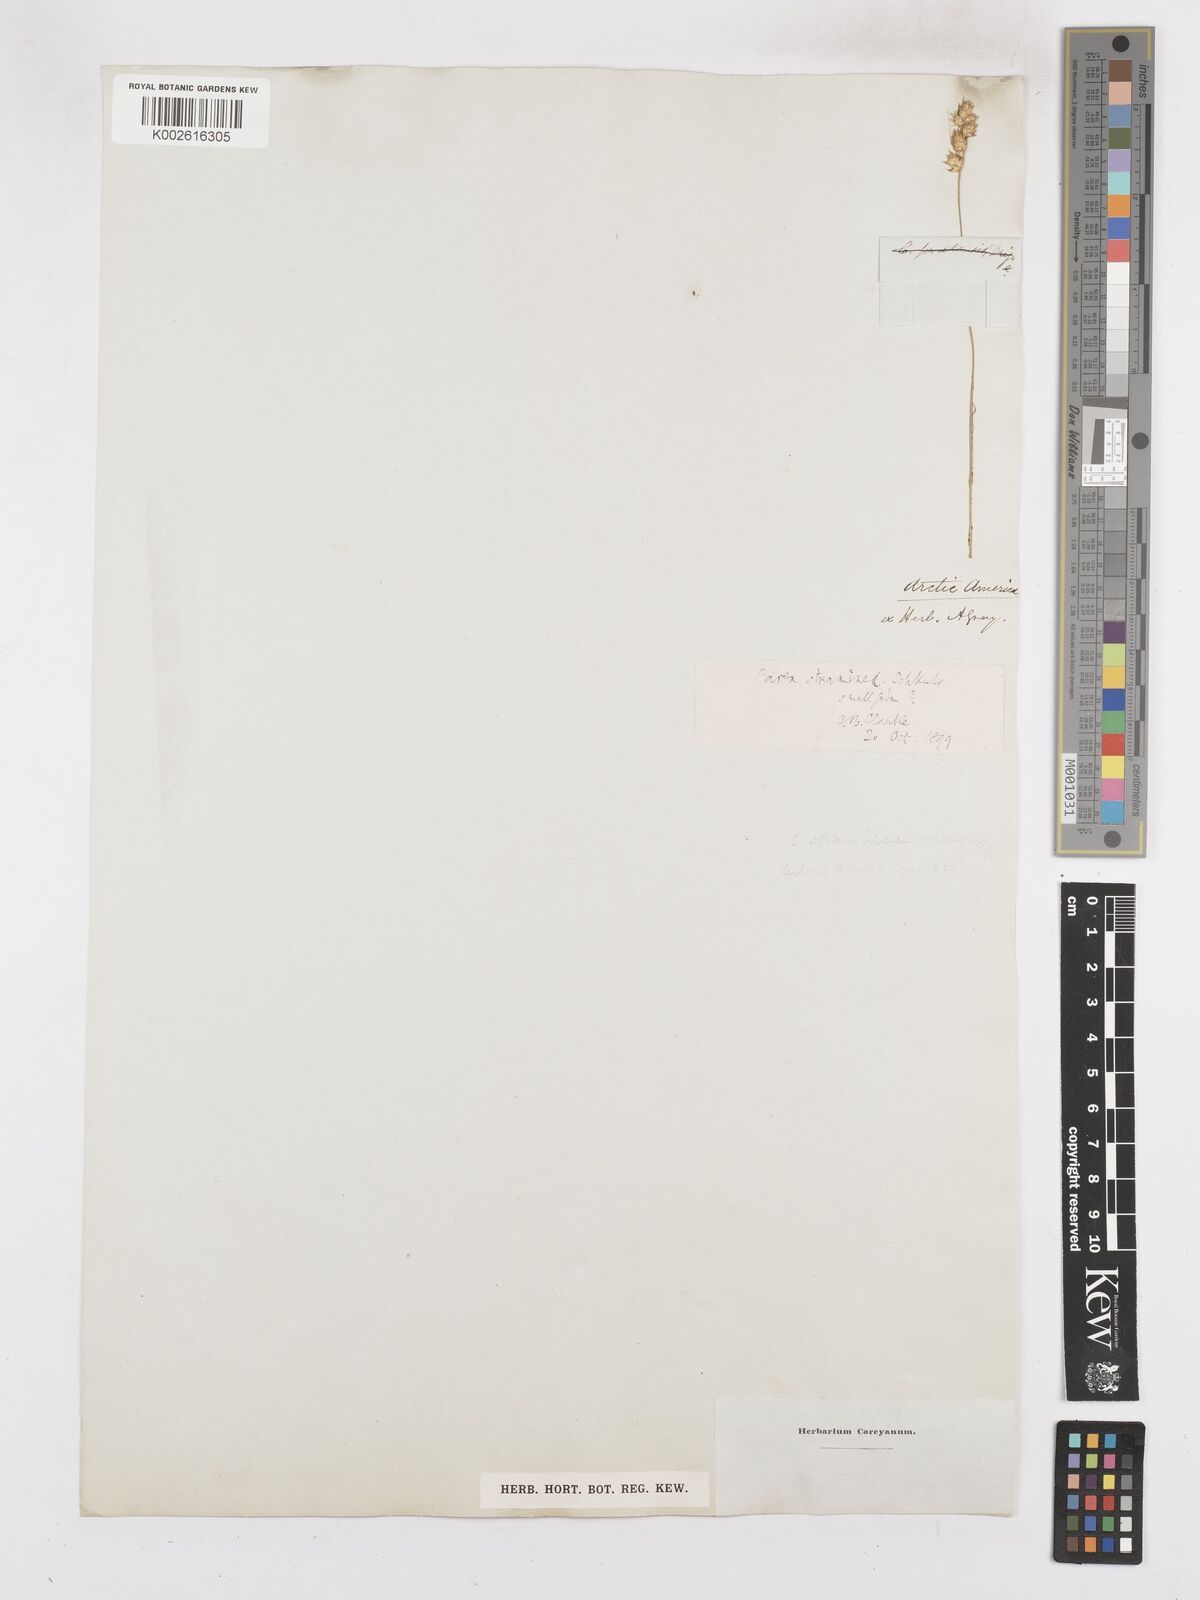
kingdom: Plantae
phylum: Tracheophyta
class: Liliopsida
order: Poales
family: Cyperaceae
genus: Carex
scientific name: Carex albolutescens
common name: Freenish white sedge
